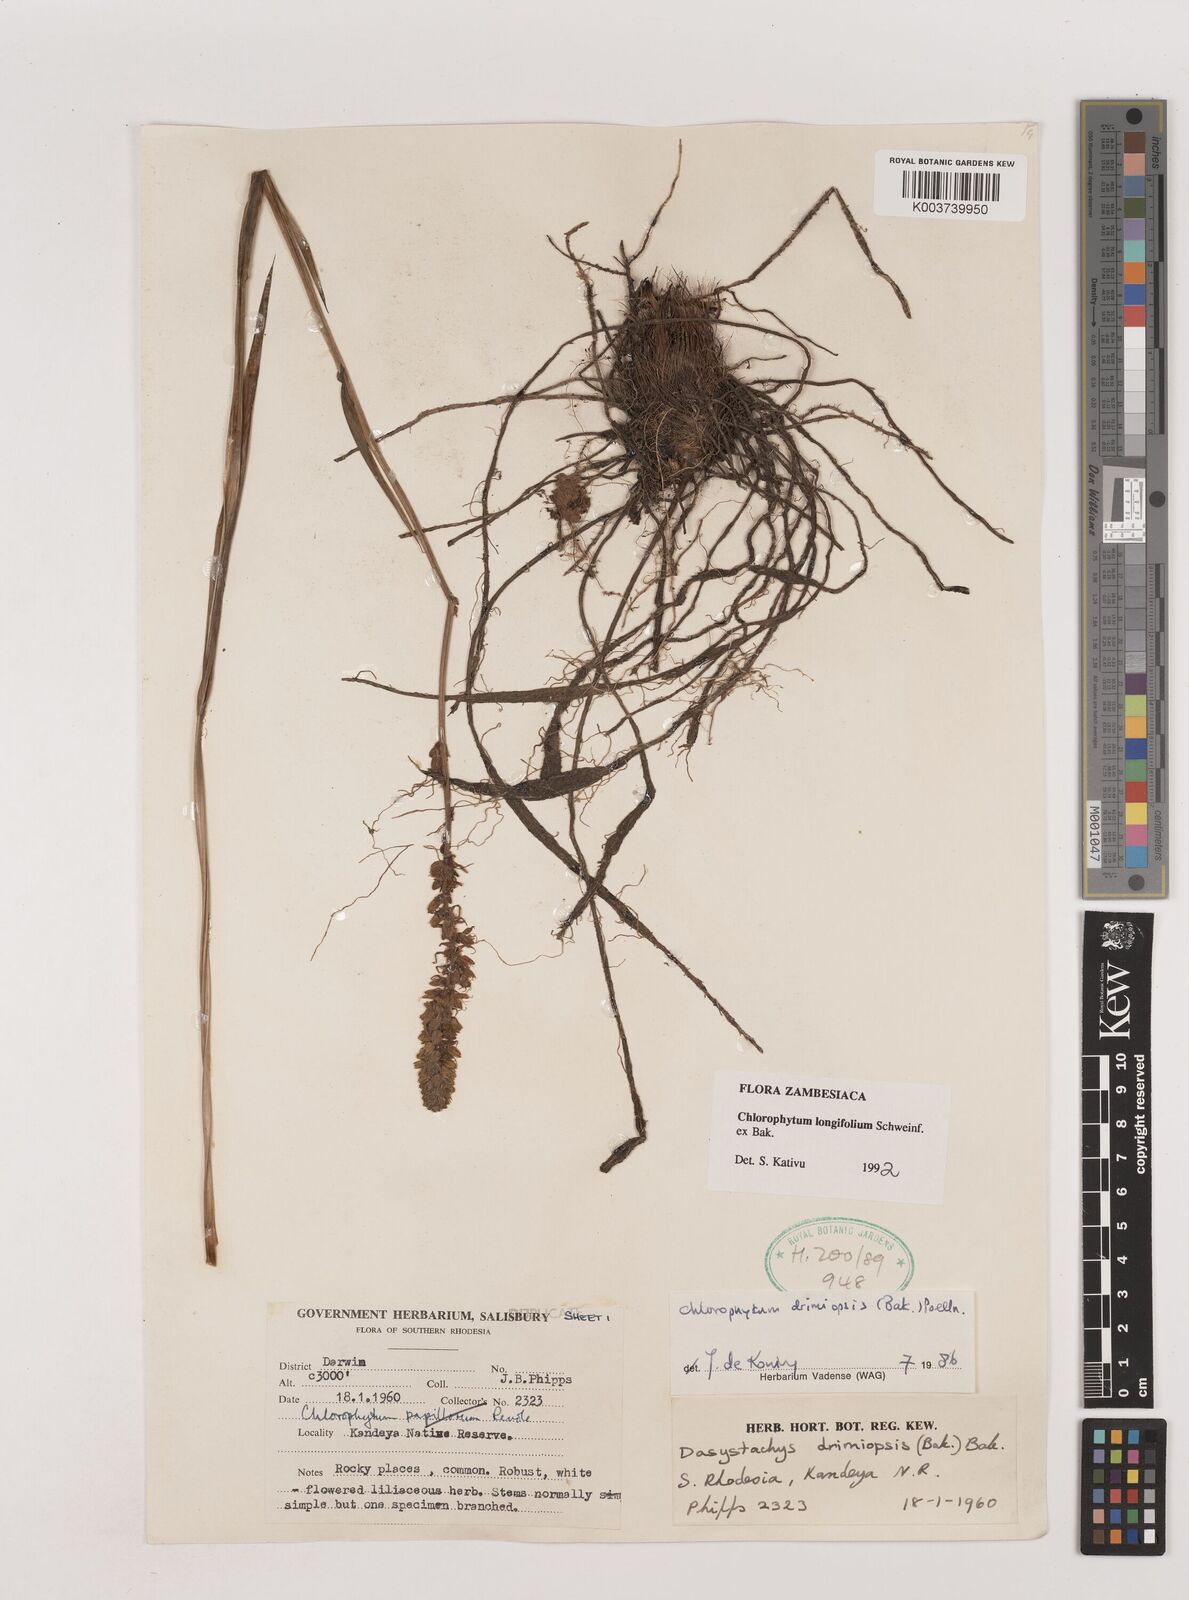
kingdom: Plantae
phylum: Tracheophyta
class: Liliopsida
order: Asparagales
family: Asparagaceae
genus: Chlorophytum
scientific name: Chlorophytum longifolium
